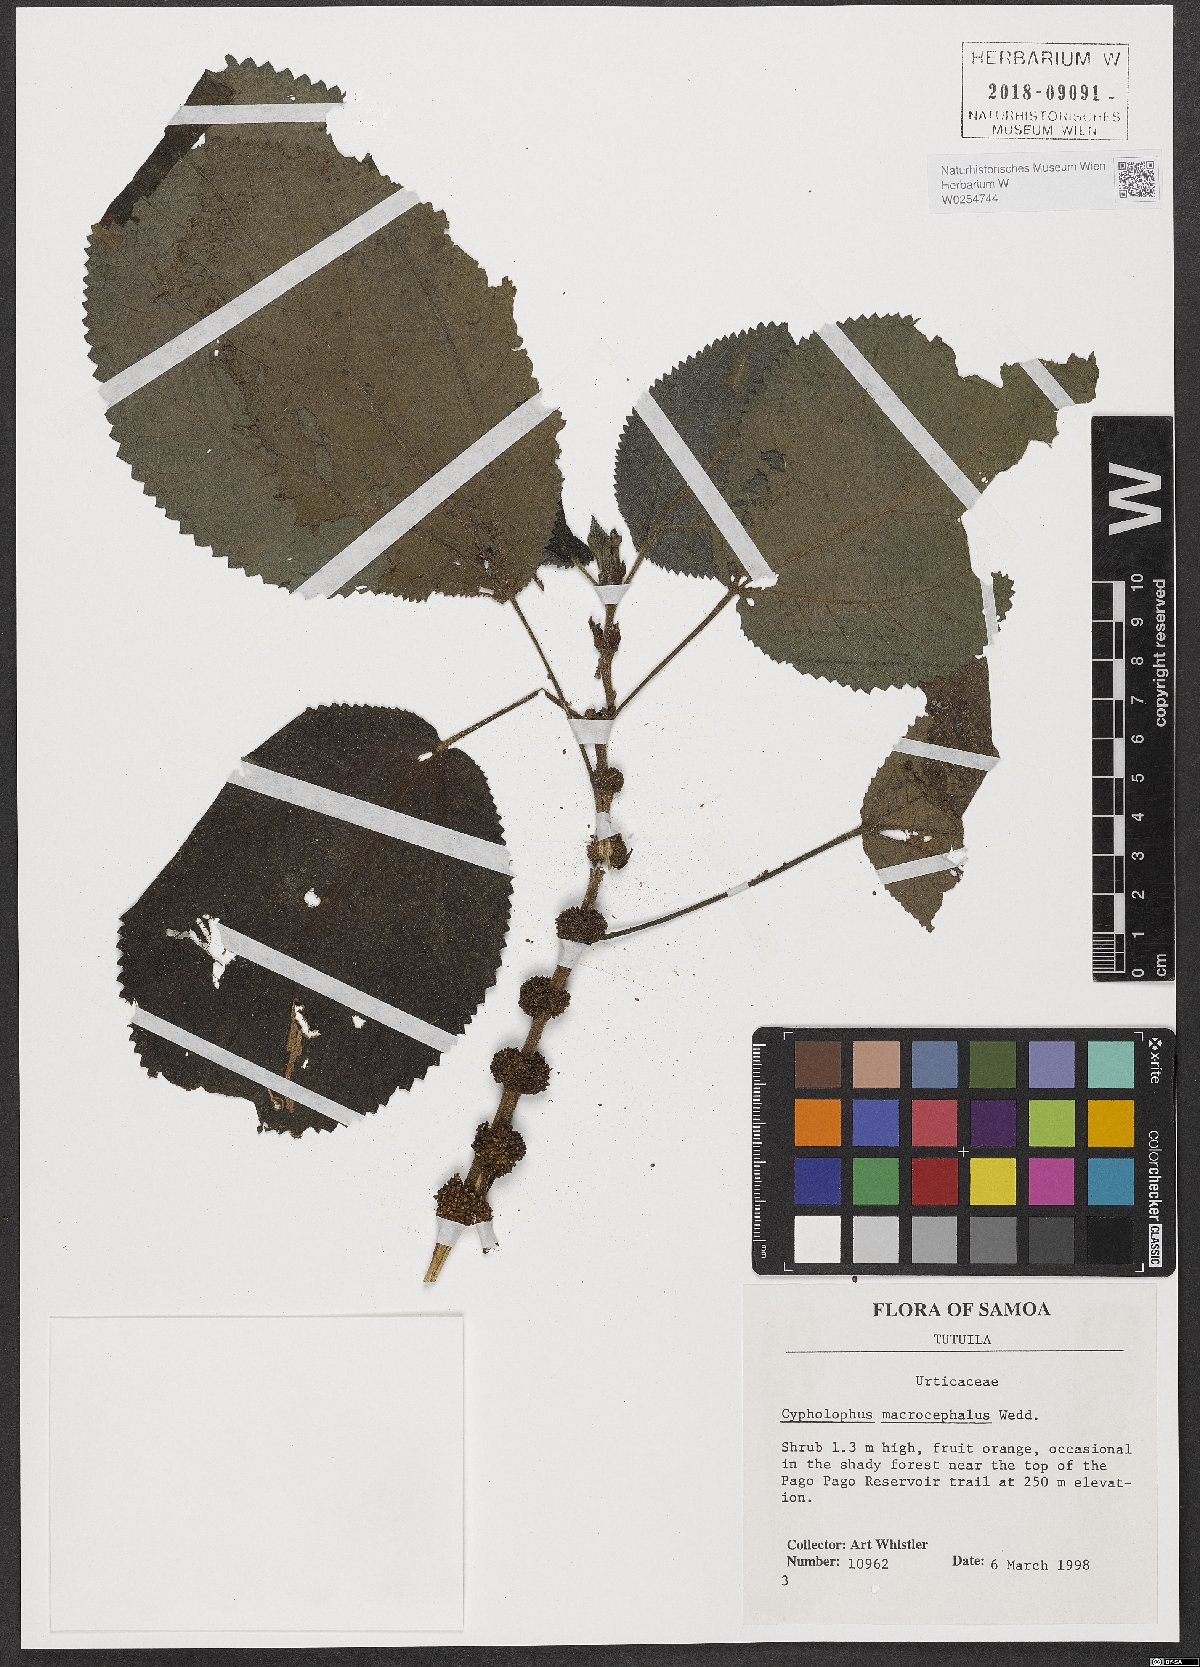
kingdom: Plantae
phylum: Tracheophyta
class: Magnoliopsida
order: Rosales
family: Urticaceae
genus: Cypholophus
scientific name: Cypholophus macrocephalus
